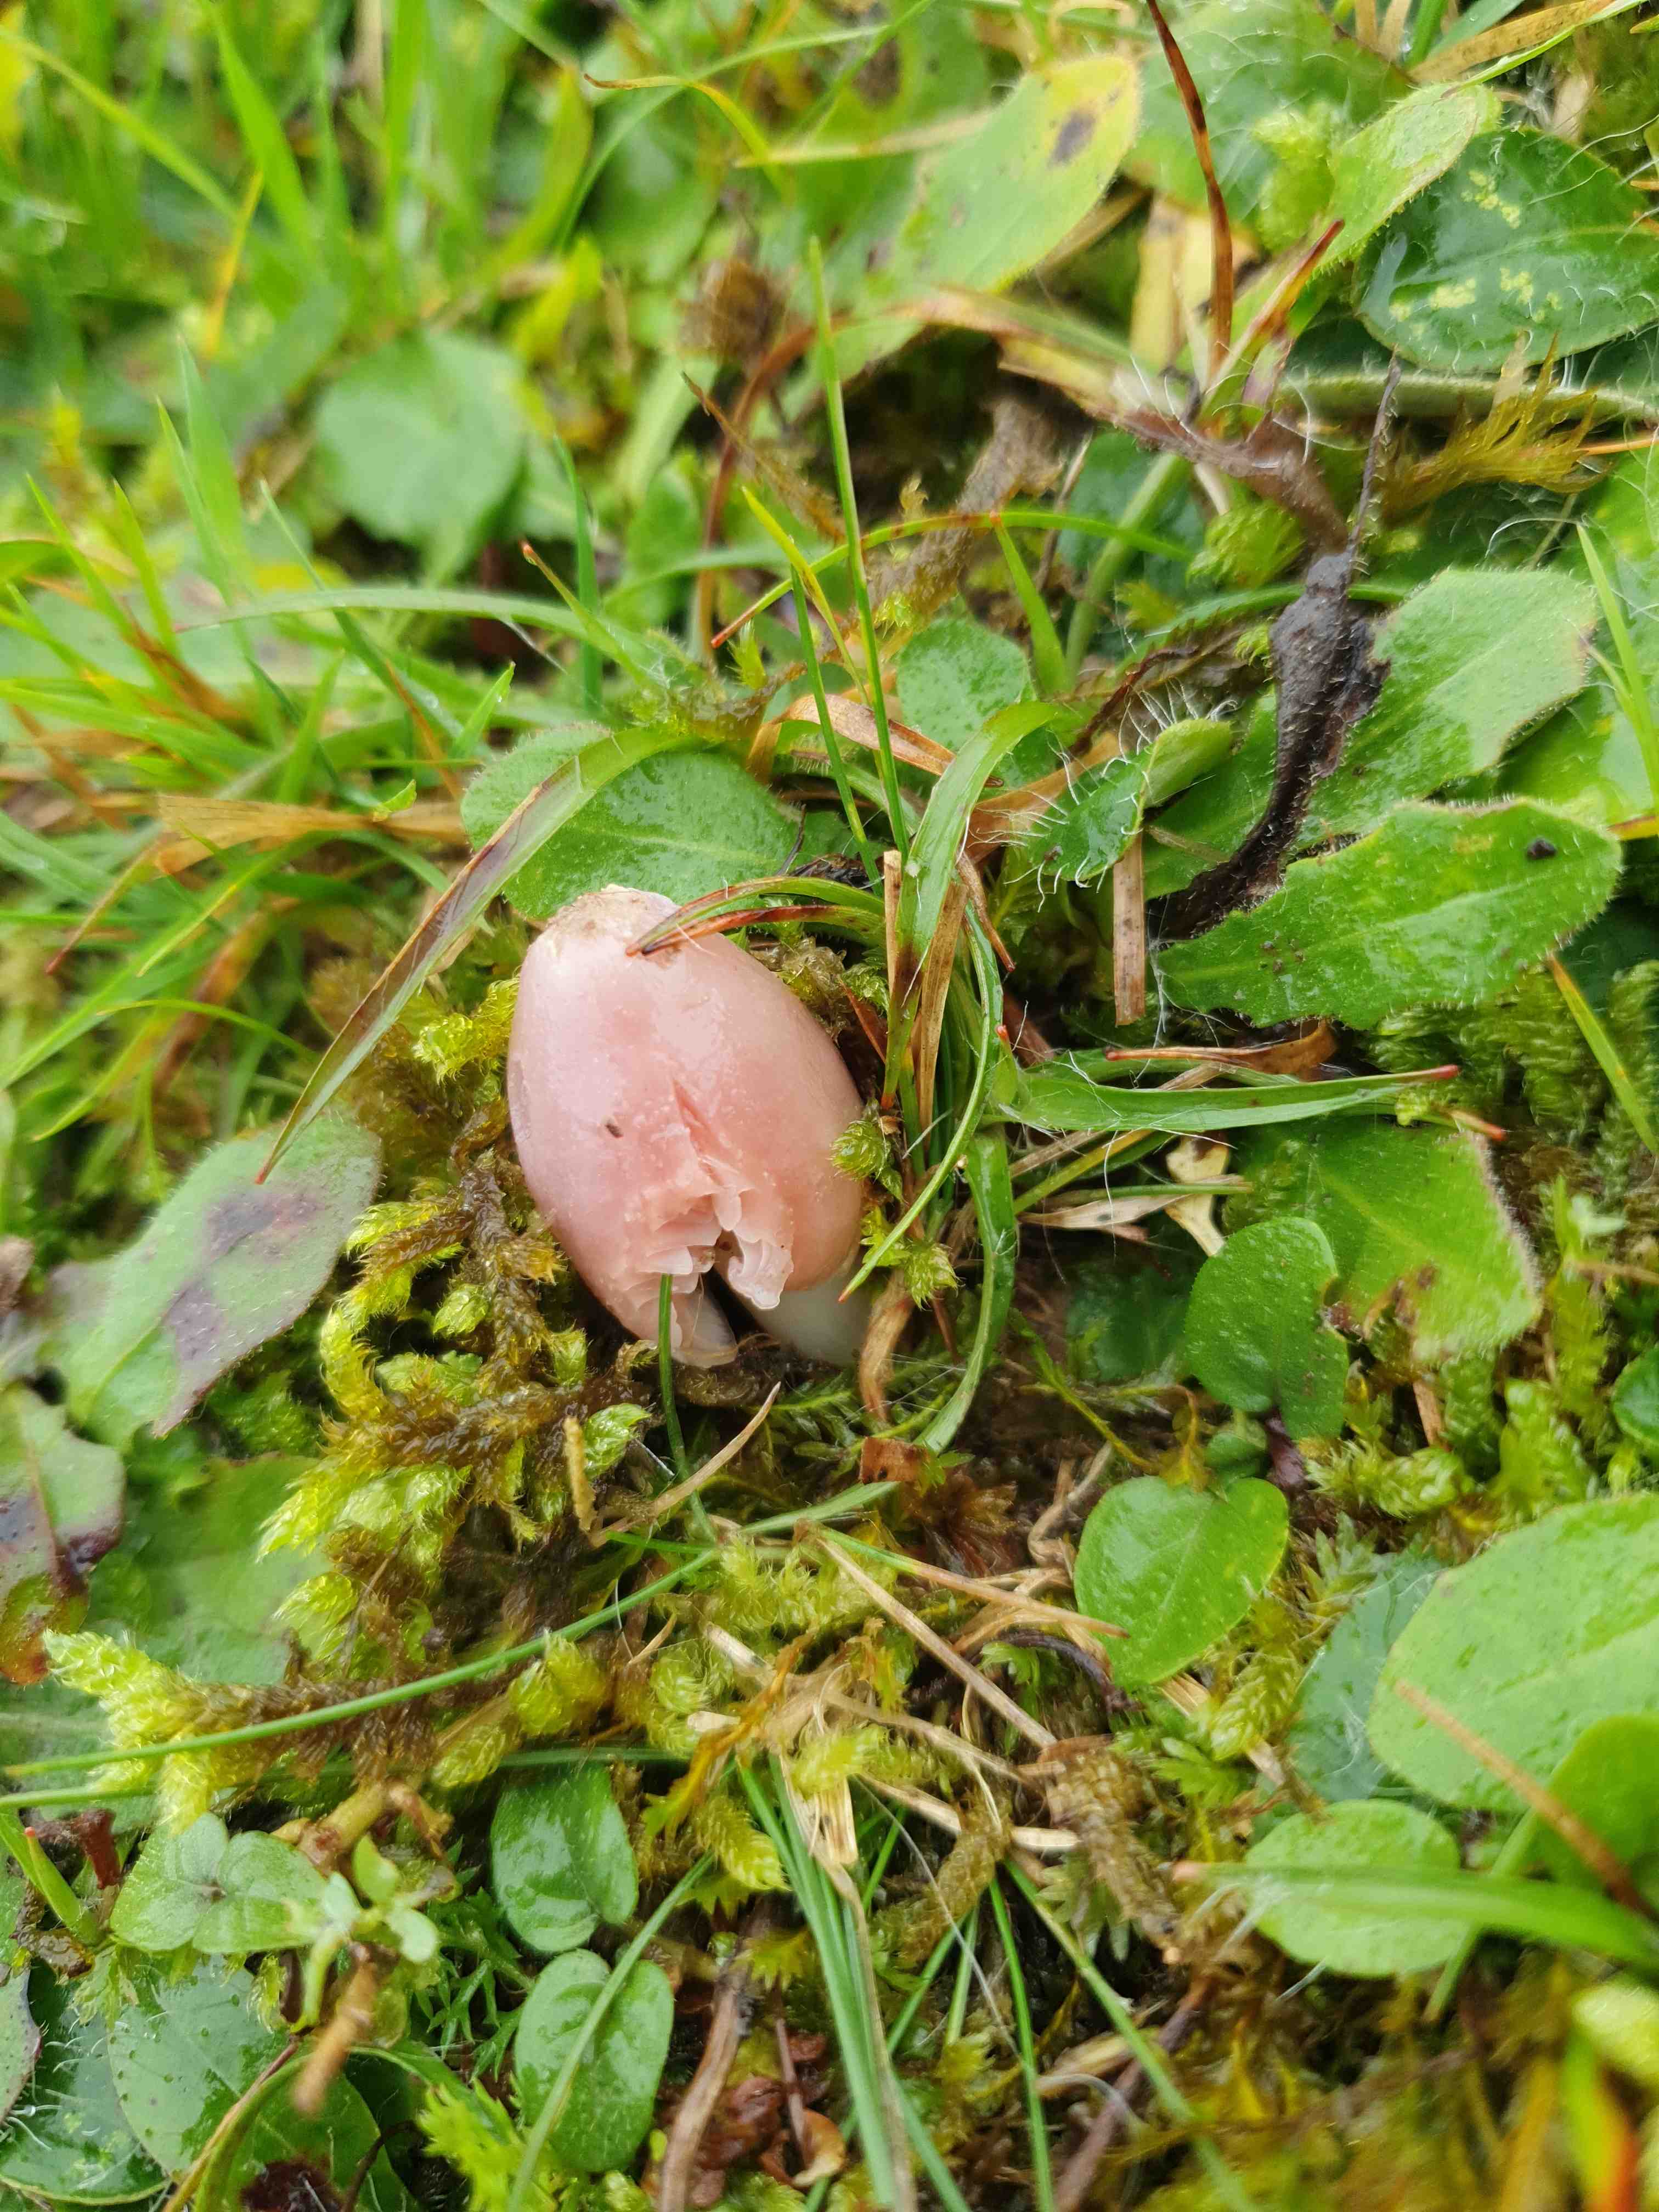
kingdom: Fungi
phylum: Basidiomycota
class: Agaricomycetes
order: Agaricales
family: Hygrophoraceae
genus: Porpolomopsis
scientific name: Porpolomopsis calyptriformis
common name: rosenrød vokshat
